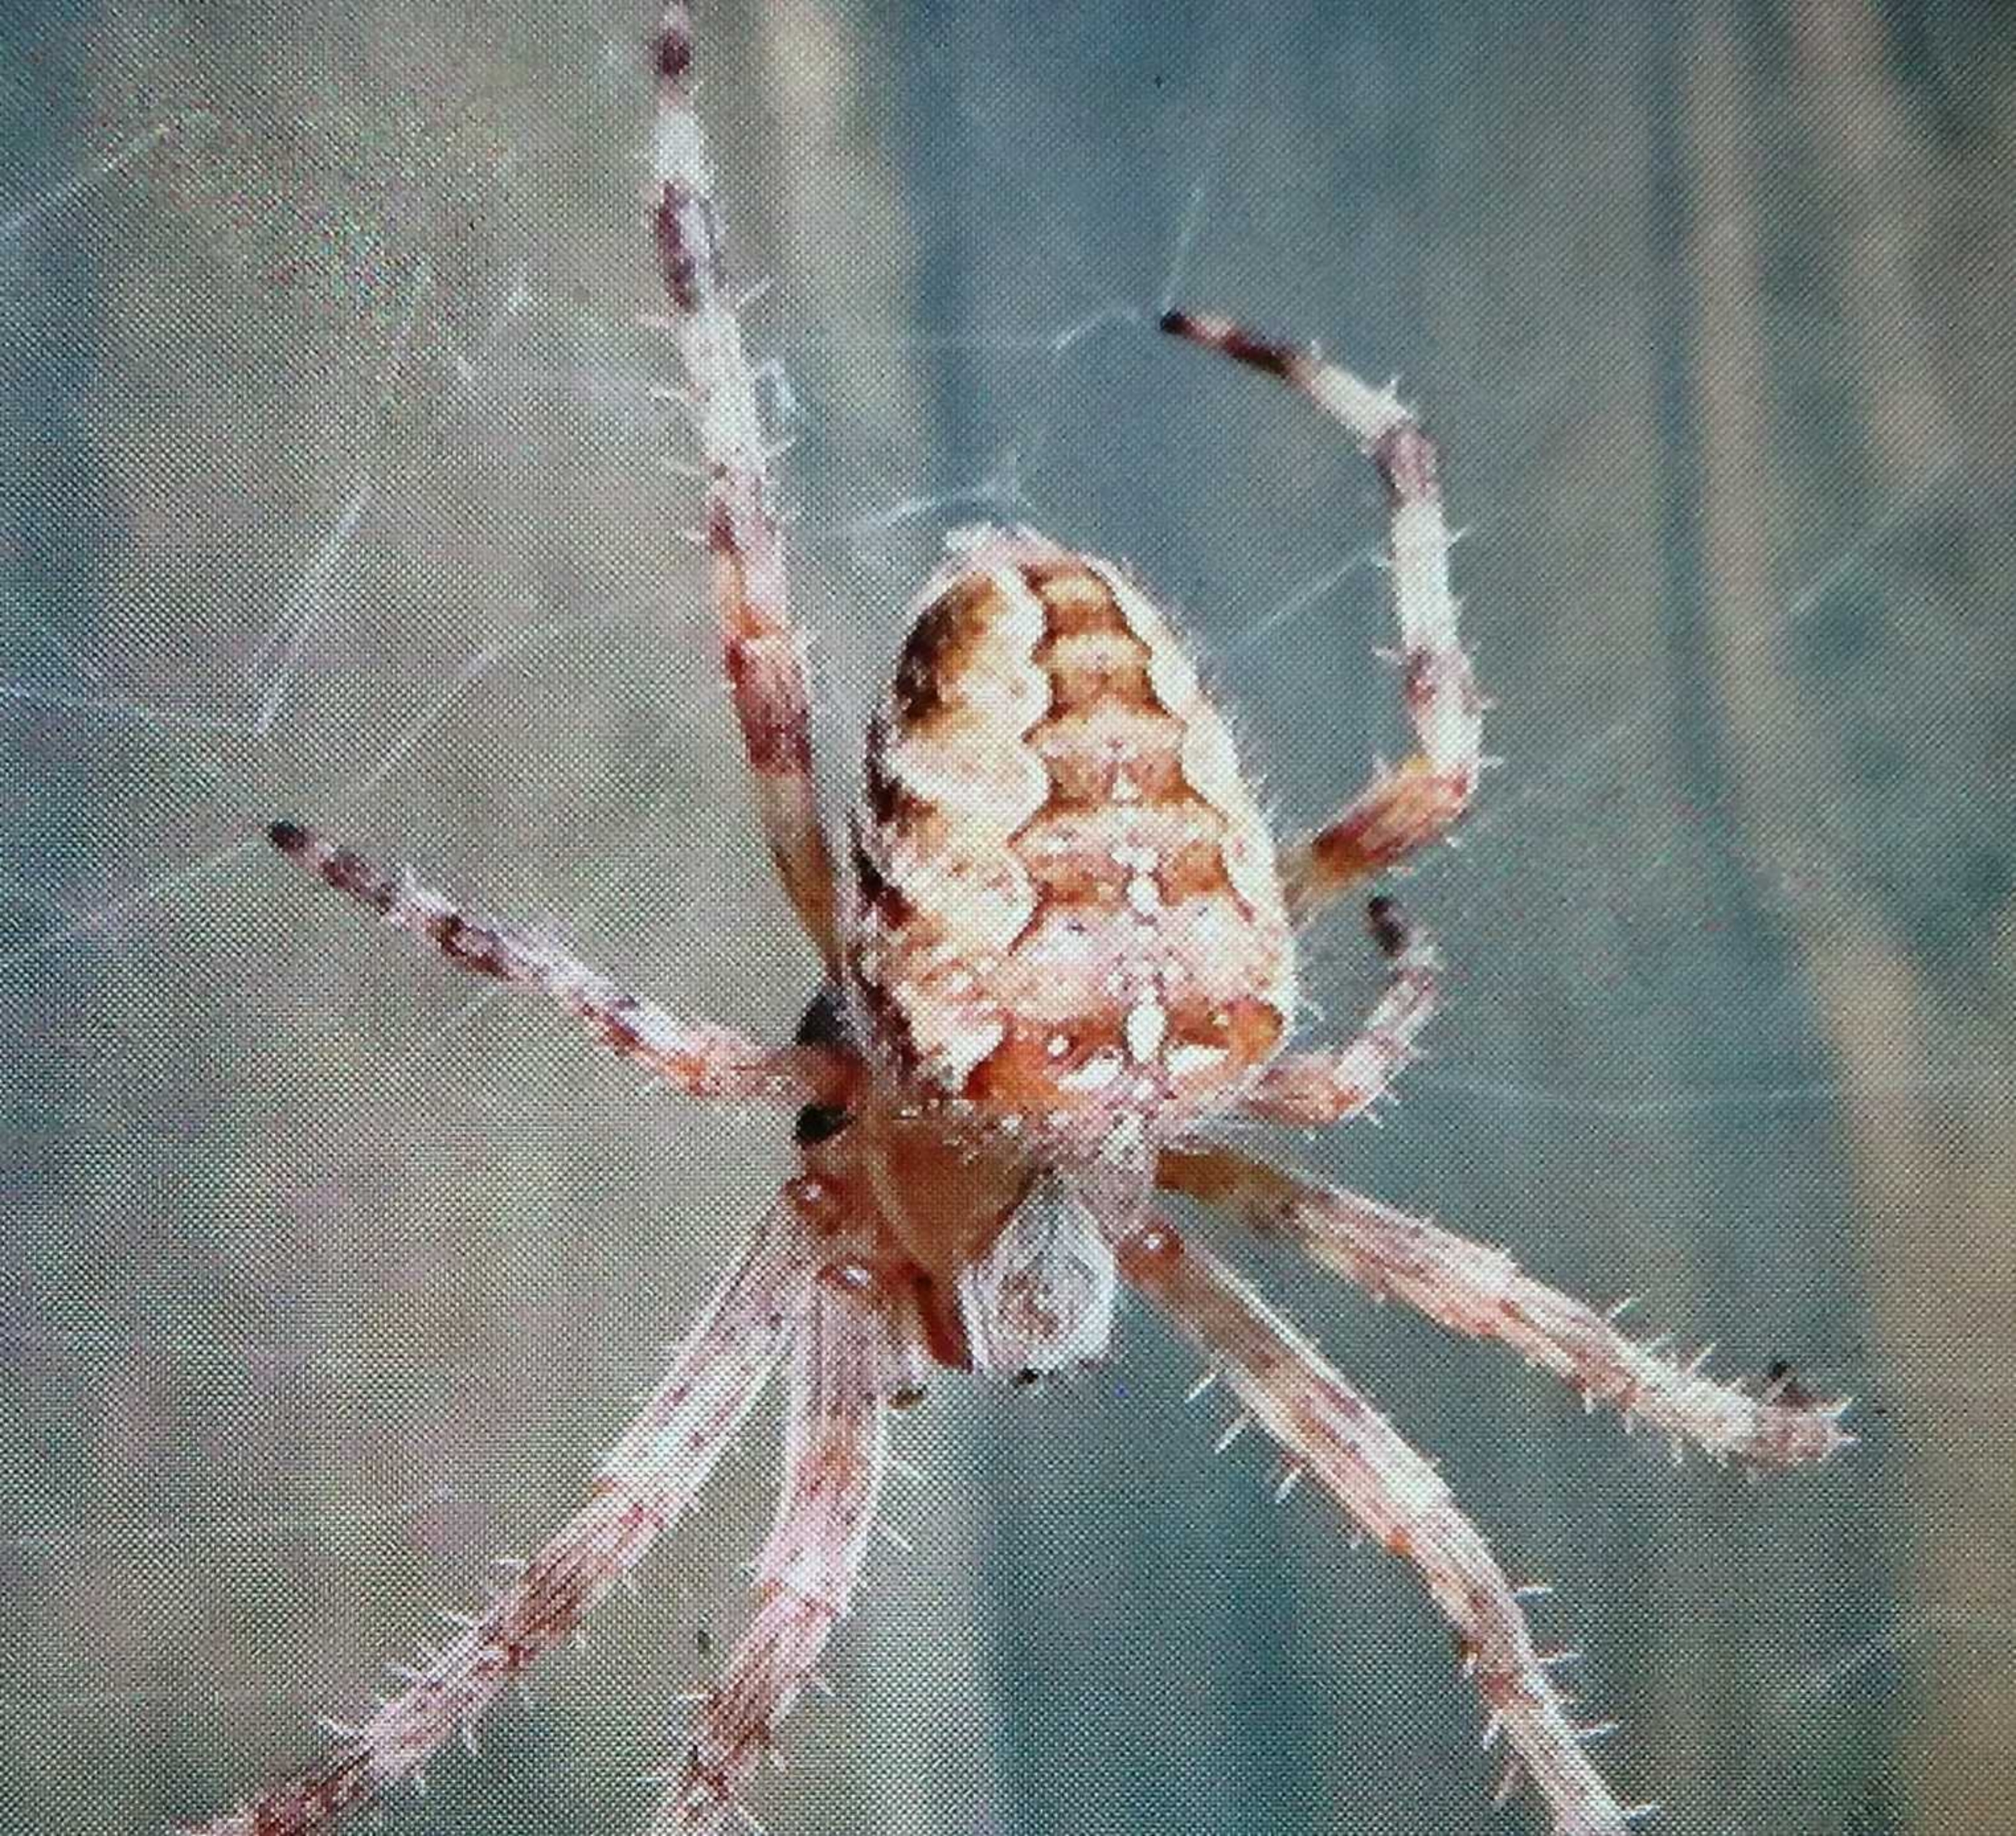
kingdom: Animalia
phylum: Arthropoda
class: Arachnida
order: Araneae
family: Araneidae
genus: Araneus
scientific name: Araneus diadematus
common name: Korsedderkop
